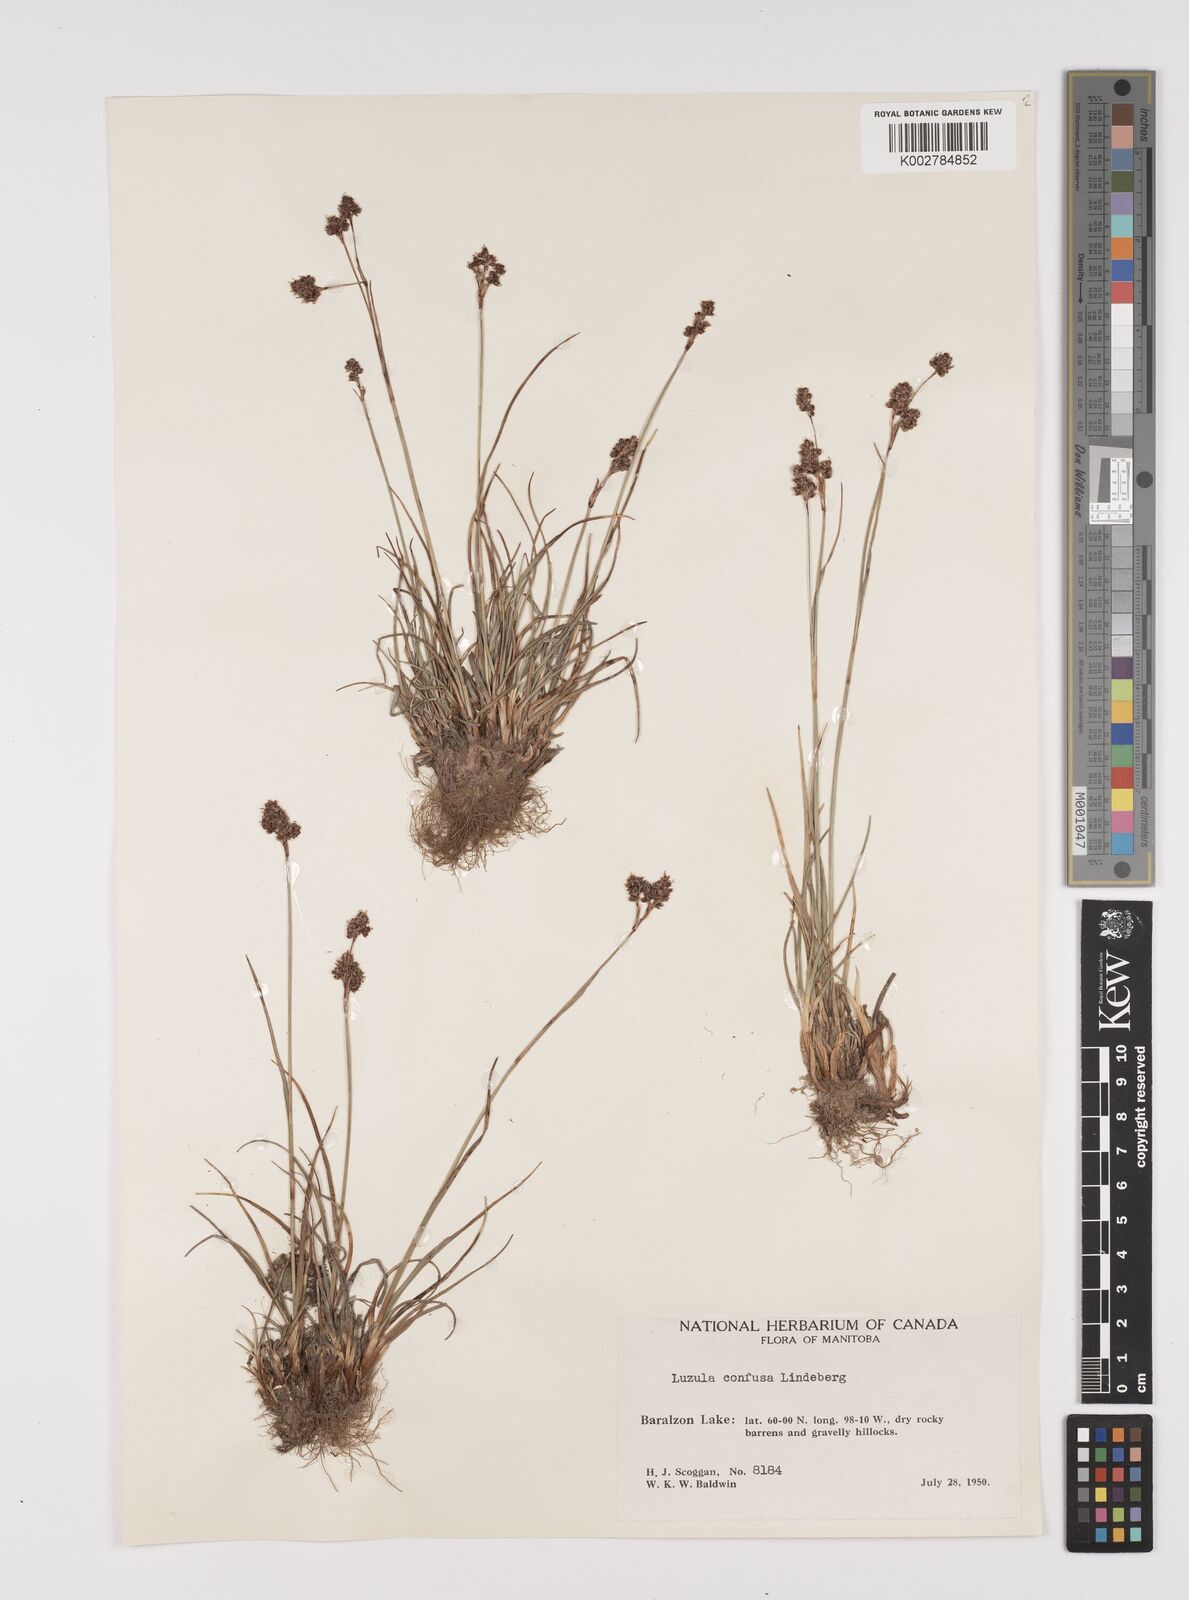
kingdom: Plantae
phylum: Tracheophyta
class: Liliopsida
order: Poales
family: Juncaceae
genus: Luzula
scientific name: Luzula confusa
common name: Northern wood rush
